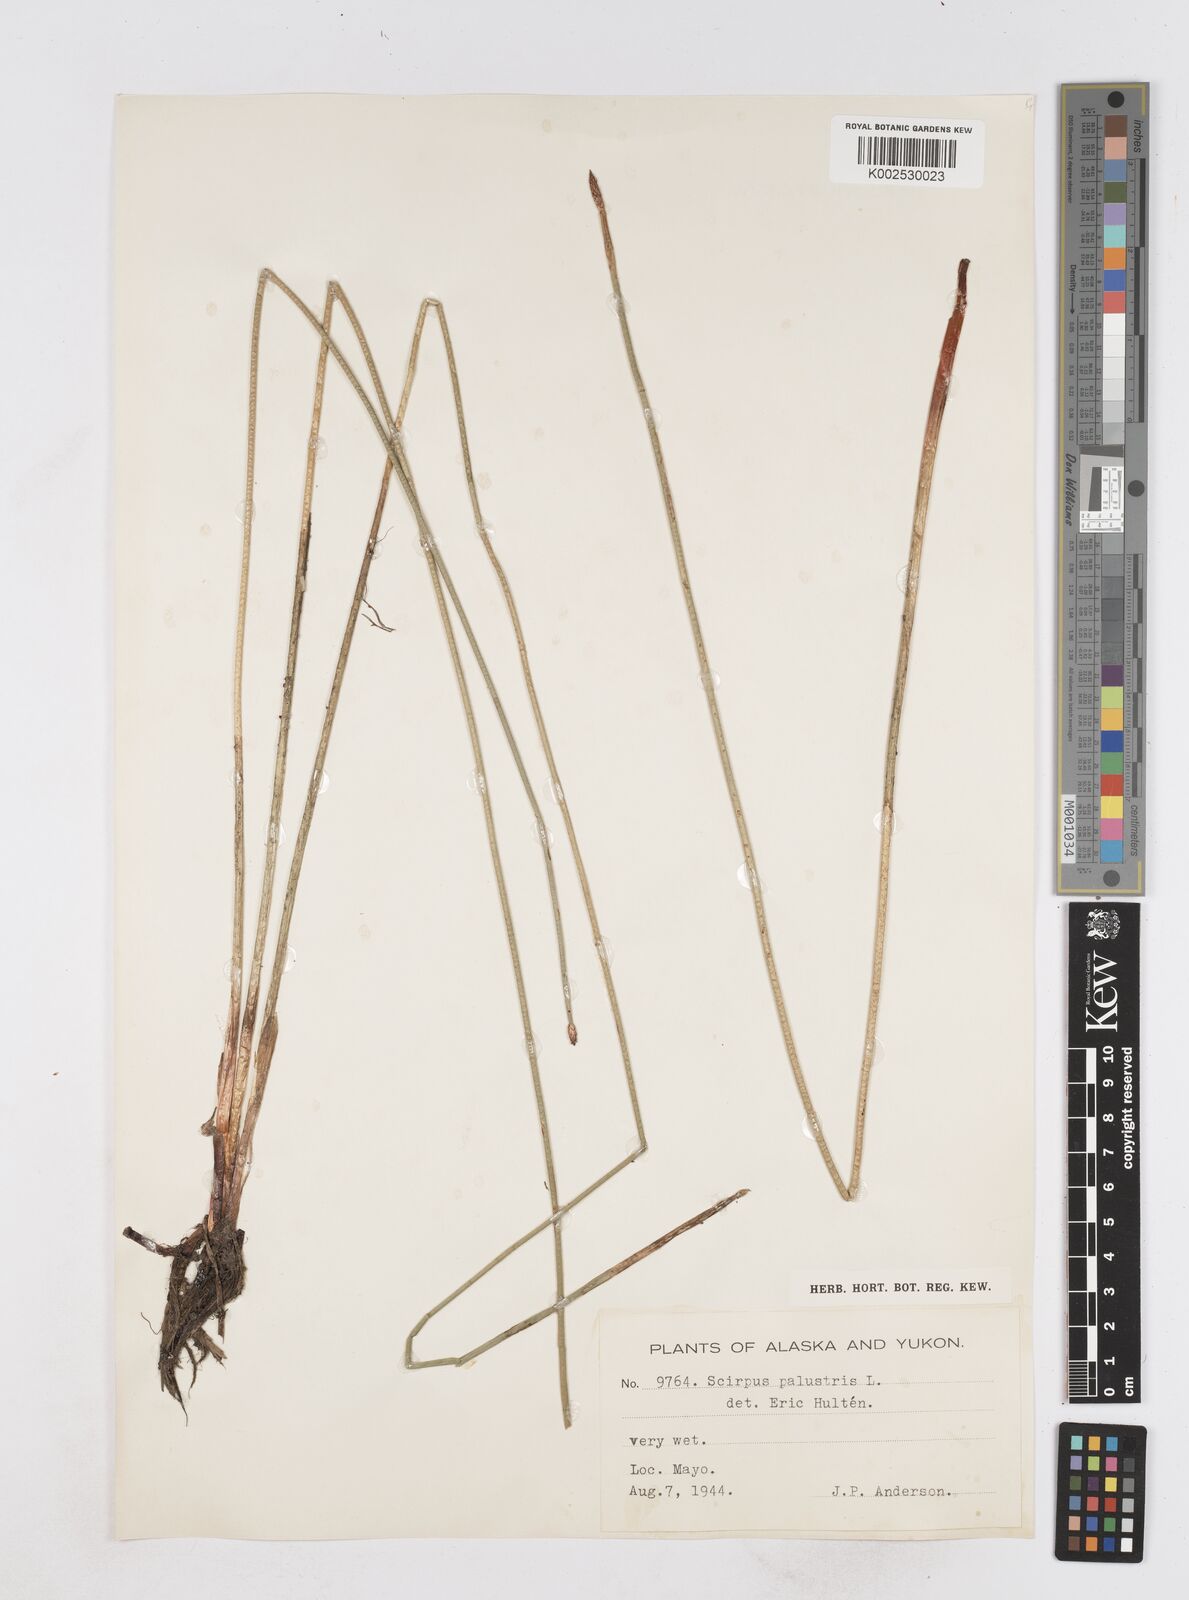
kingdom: Plantae
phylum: Tracheophyta
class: Liliopsida
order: Poales
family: Cyperaceae
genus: Eleocharis
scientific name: Eleocharis palustris
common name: Common spike-rush
